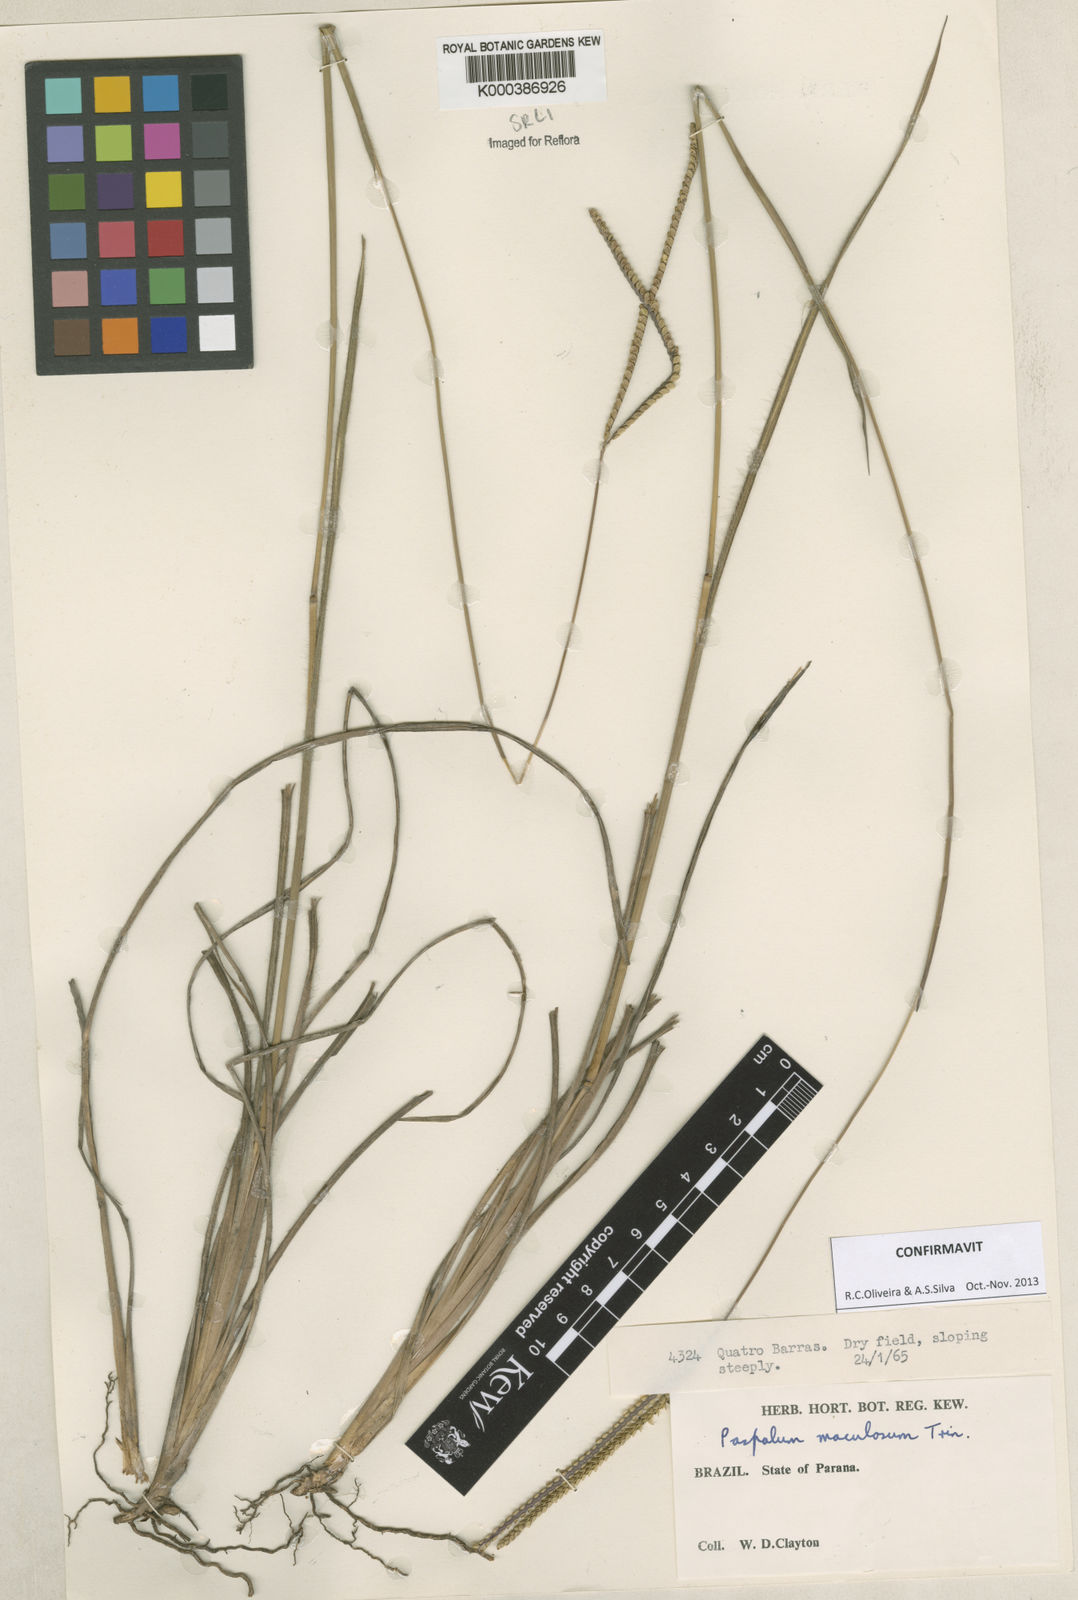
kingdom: Plantae
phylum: Tracheophyta
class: Liliopsida
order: Poales
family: Poaceae
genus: Paspalum
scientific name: Paspalum maculosum
